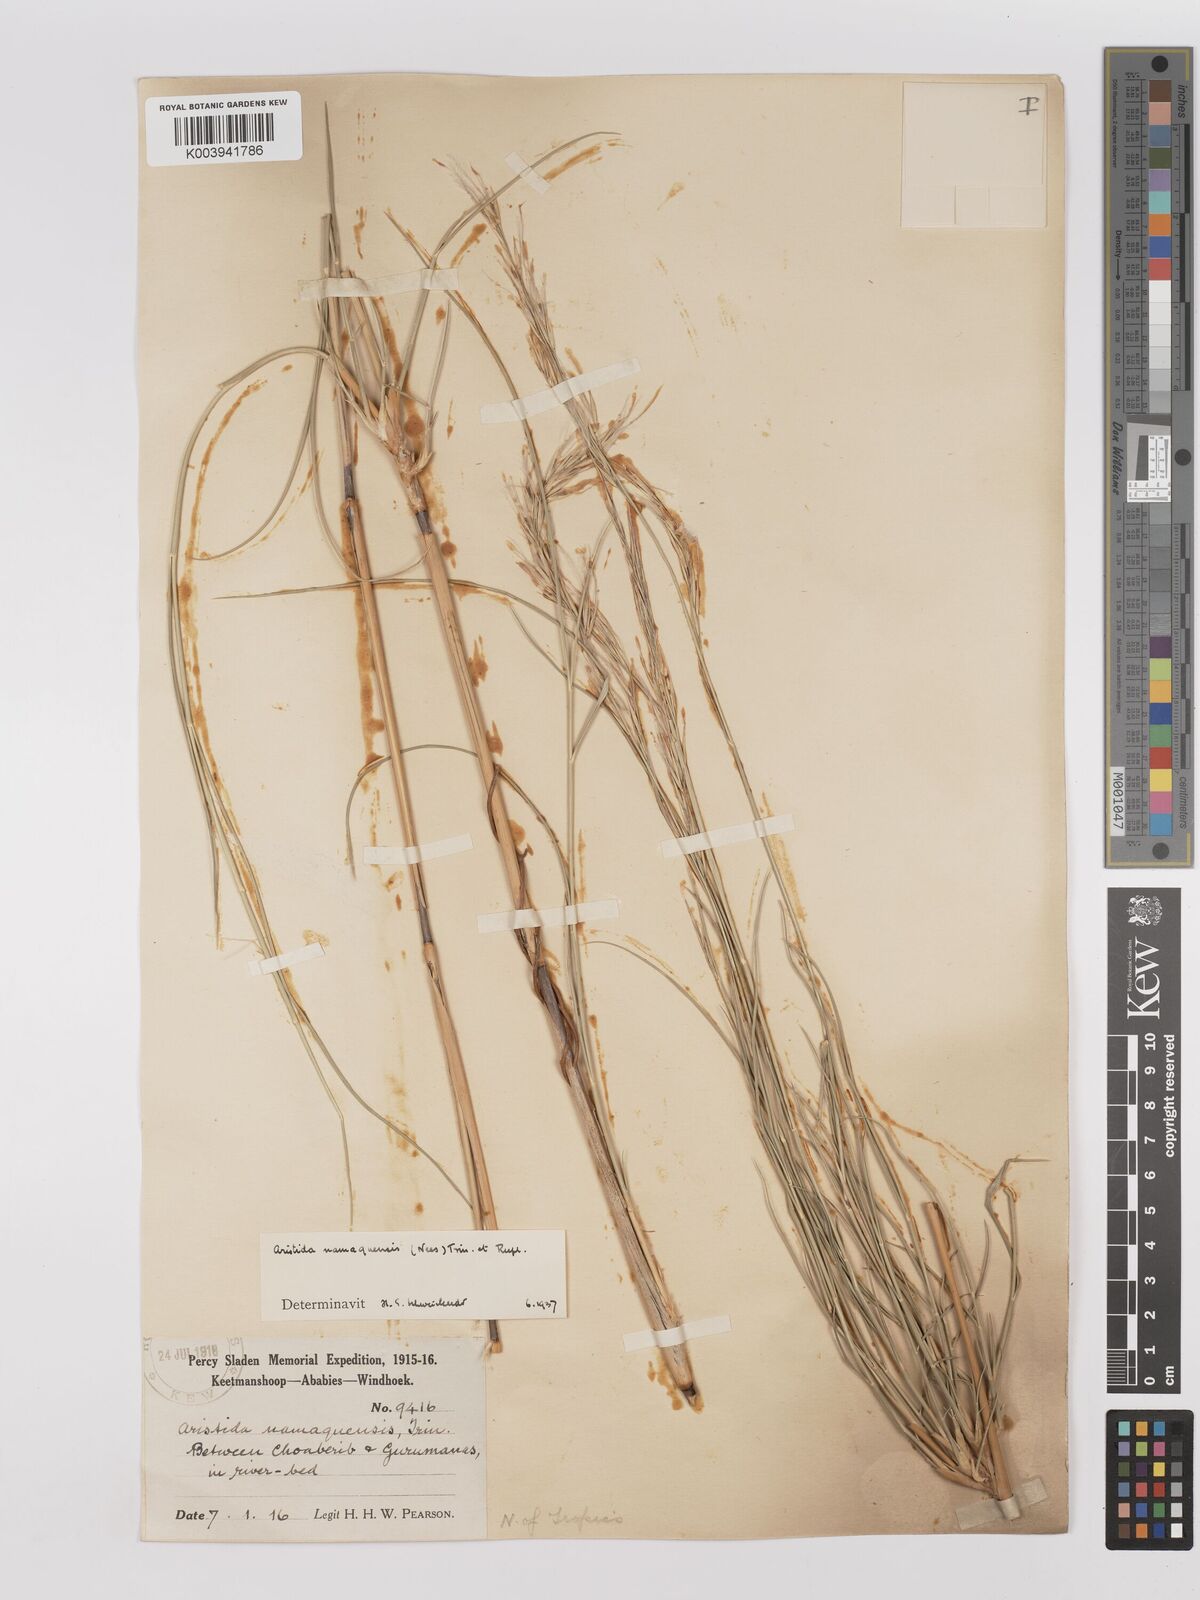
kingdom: Plantae
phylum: Tracheophyta
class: Liliopsida
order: Poales
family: Poaceae
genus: Stipagrostis
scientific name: Stipagrostis namaquensis
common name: River bushman grass
